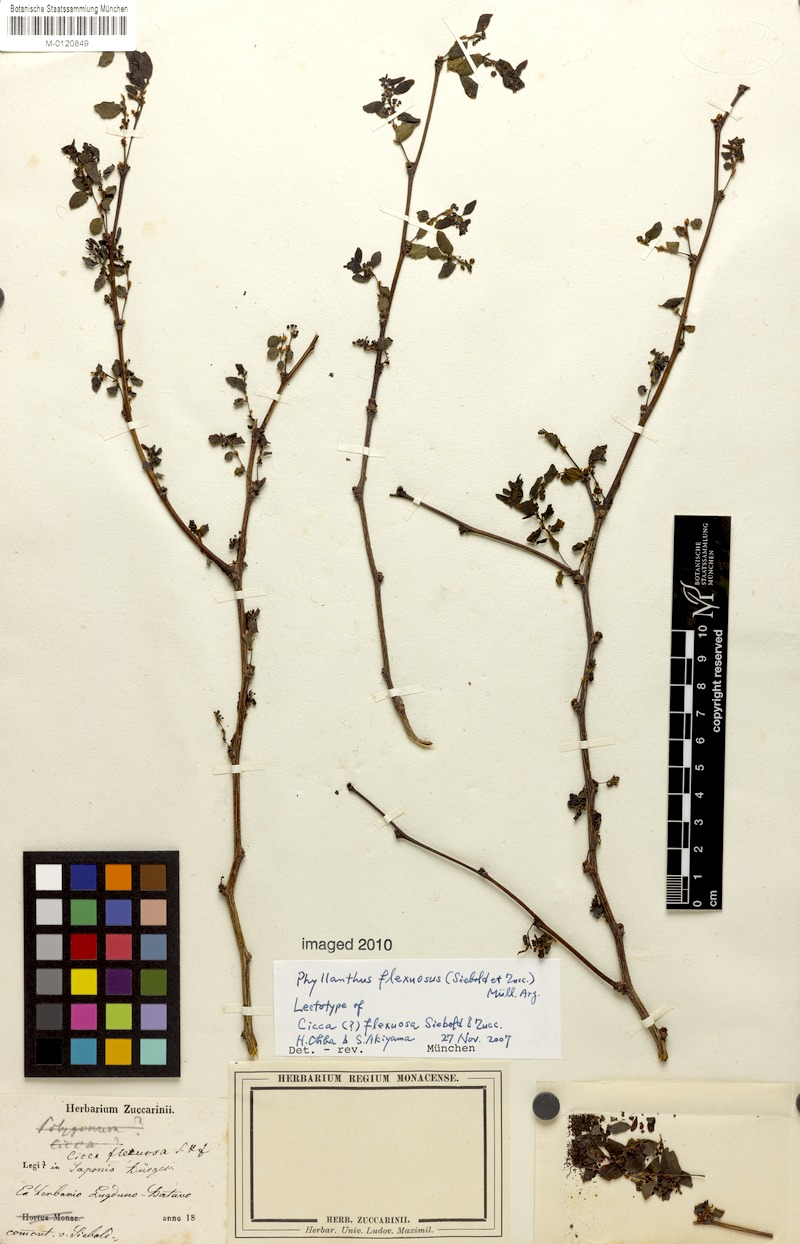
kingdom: Plantae
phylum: Tracheophyta
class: Magnoliopsida
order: Malpighiales
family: Phyllanthaceae
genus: Phyllanthus
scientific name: Phyllanthus flexuosus
